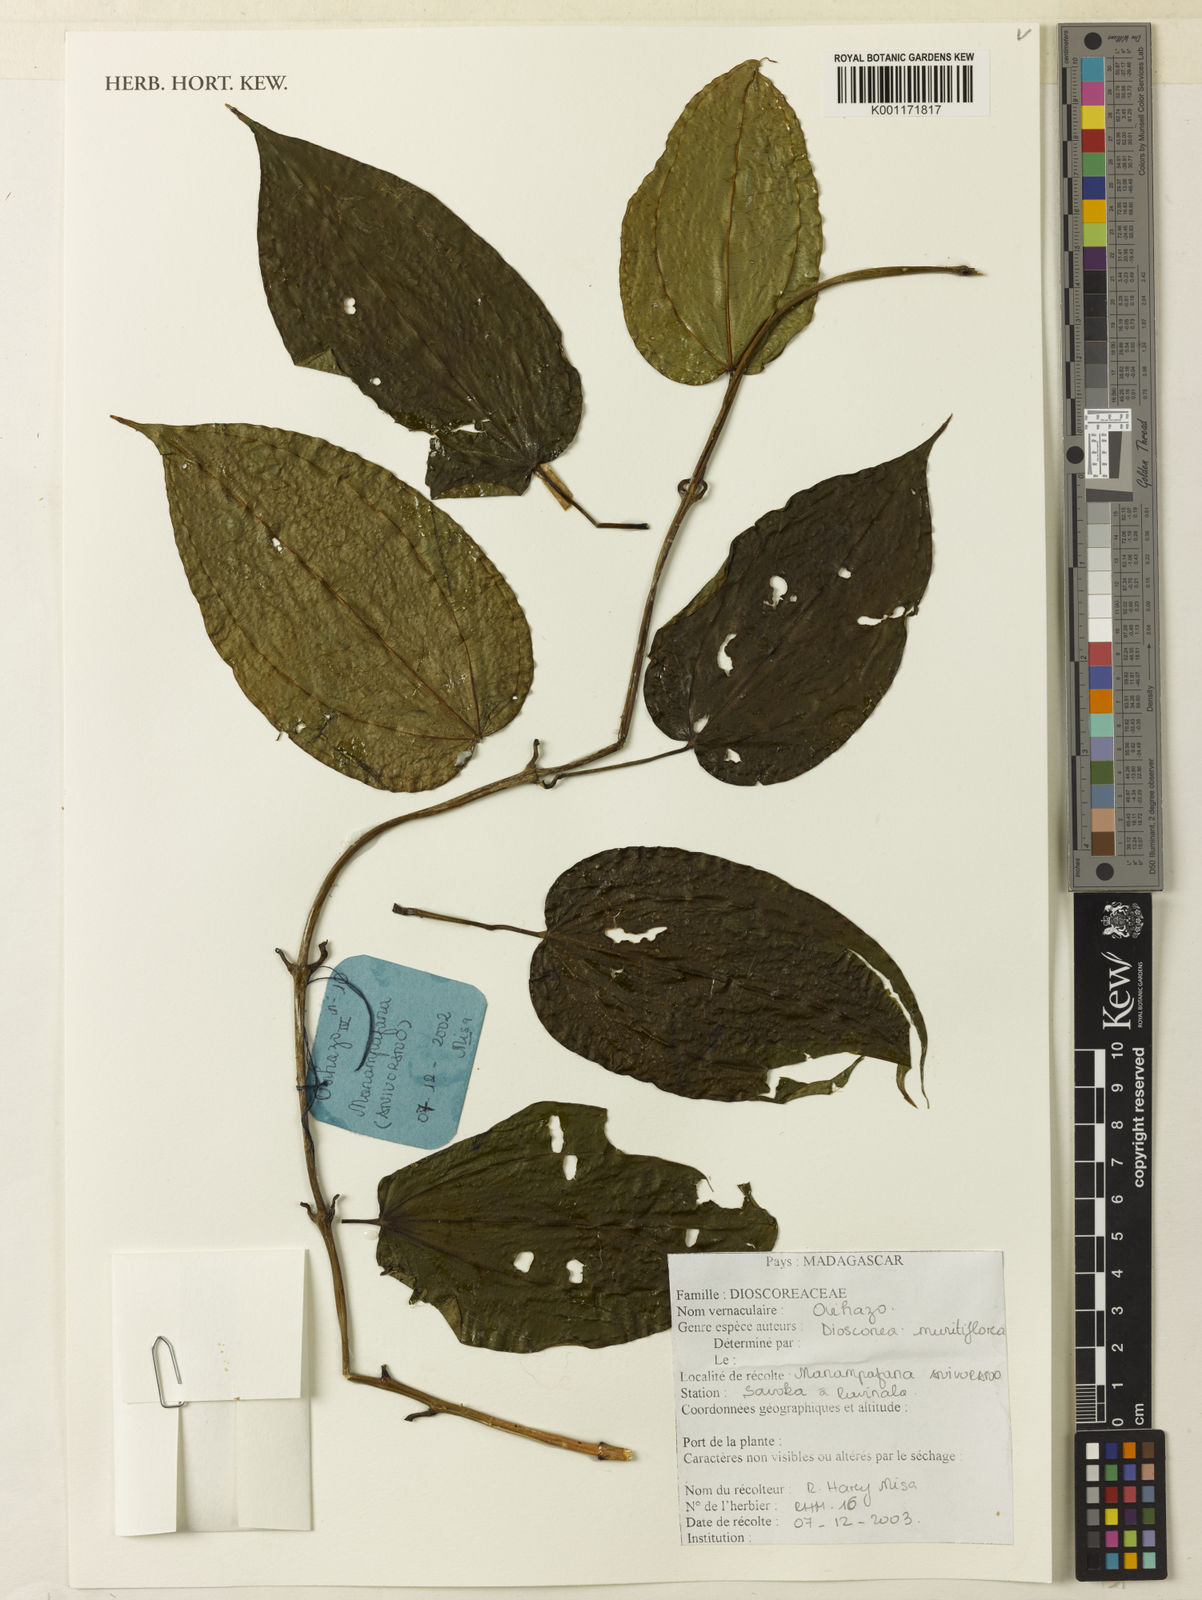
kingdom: Plantae
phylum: Tracheophyta
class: Liliopsida
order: Dioscoreales
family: Dioscoreaceae
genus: Dioscorea
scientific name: Dioscorea minutiflora
